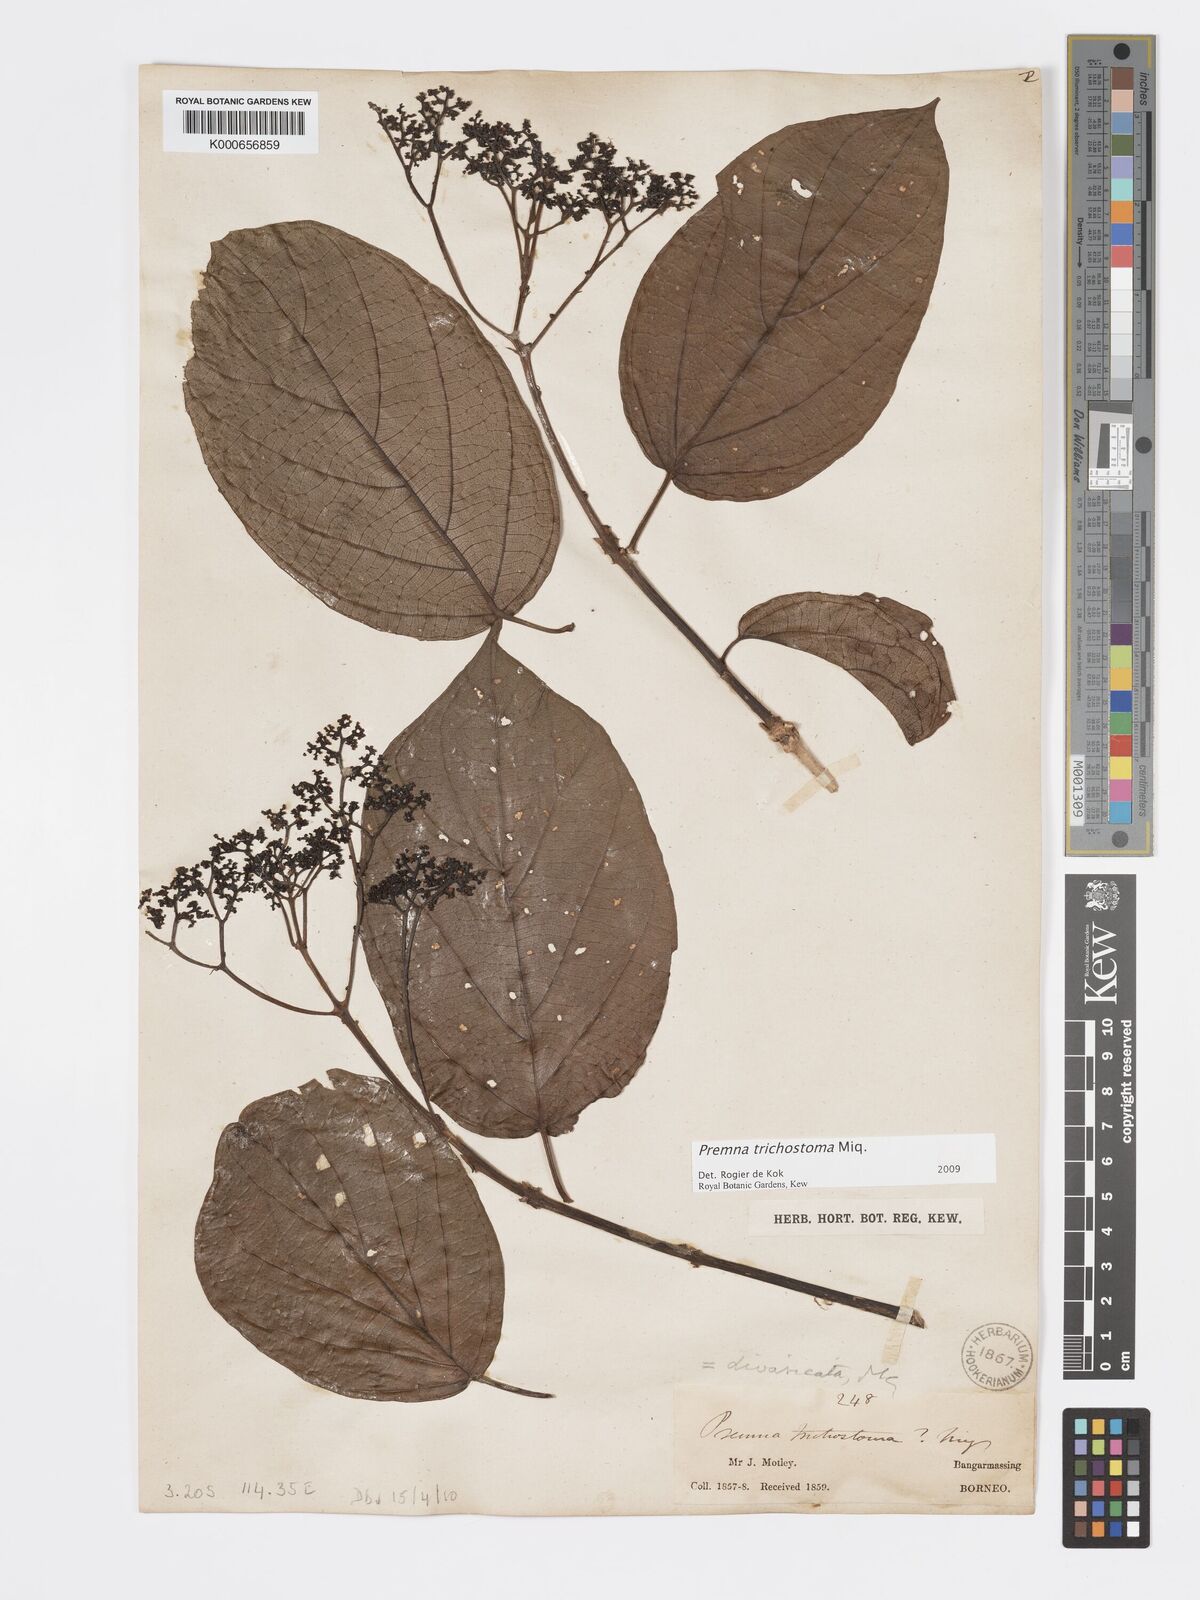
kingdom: Plantae
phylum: Tracheophyta
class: Magnoliopsida
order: Lamiales
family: Lamiaceae
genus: Premna
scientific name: Premna trichostoma
